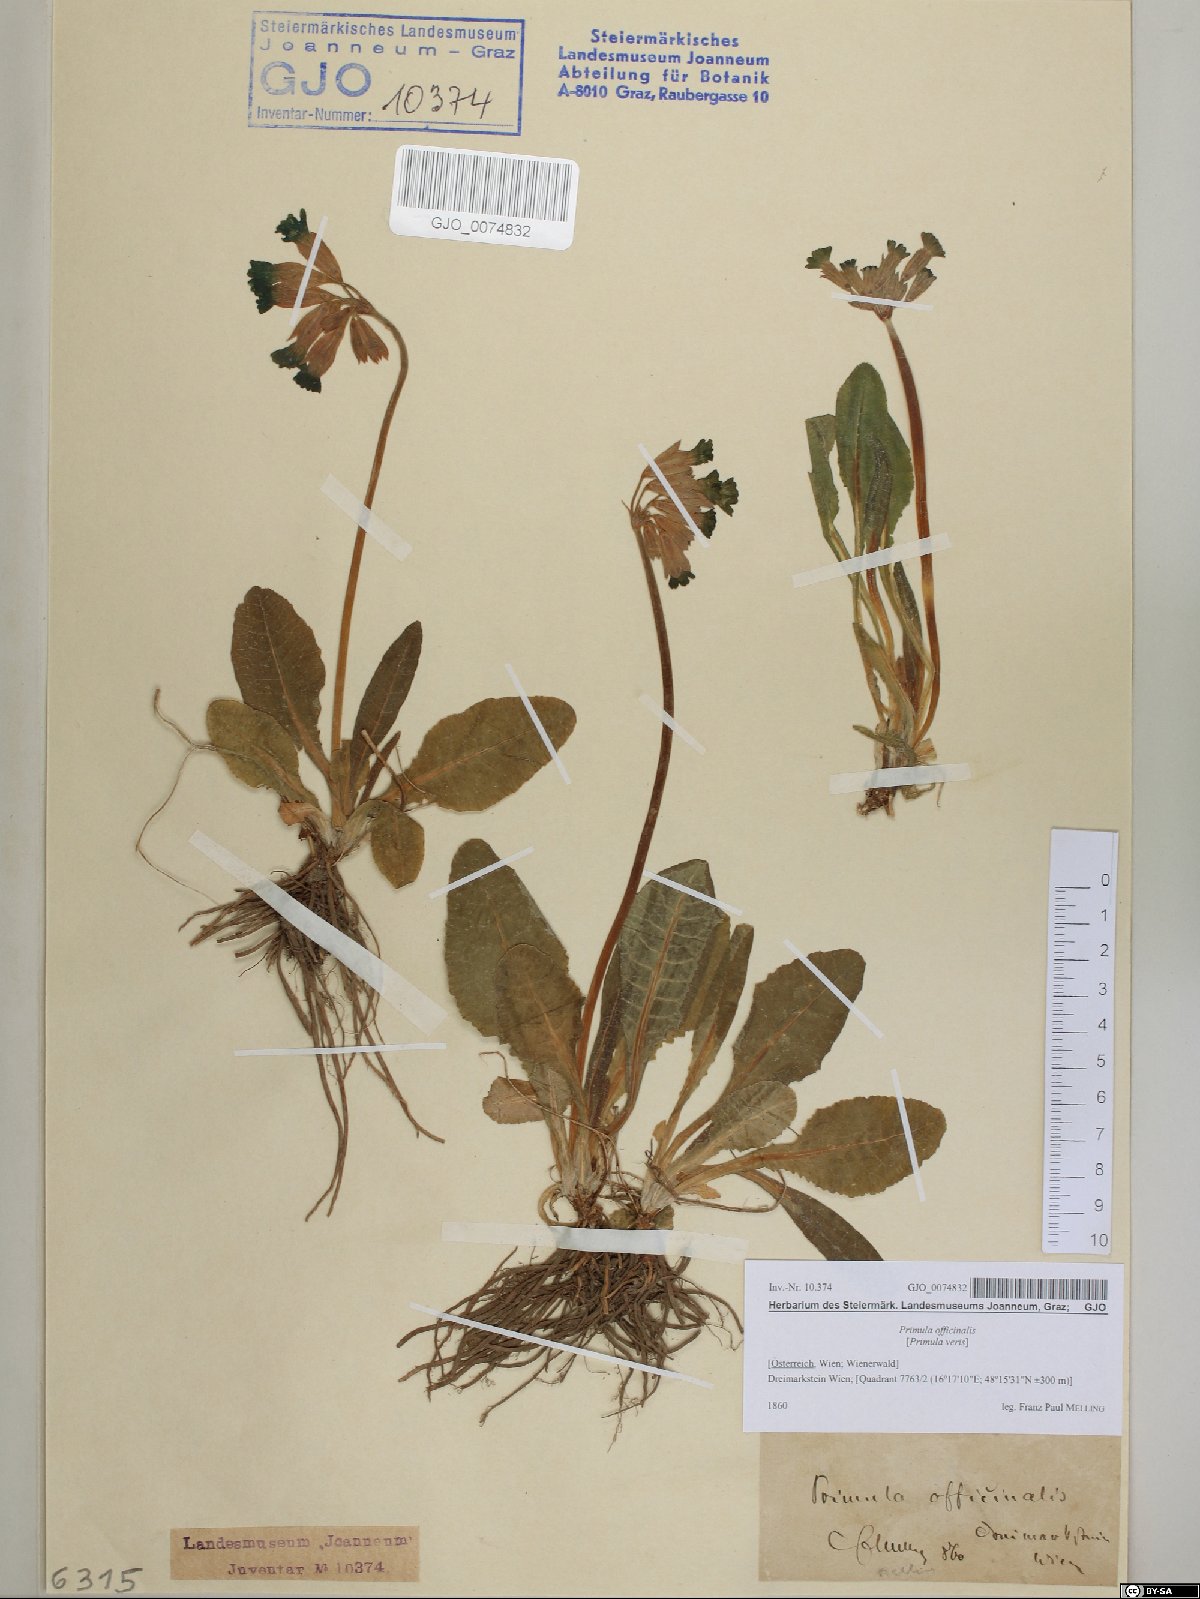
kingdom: Plantae
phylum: Tracheophyta
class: Magnoliopsida
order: Ericales
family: Primulaceae
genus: Primula
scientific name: Primula veris
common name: Cowslip
